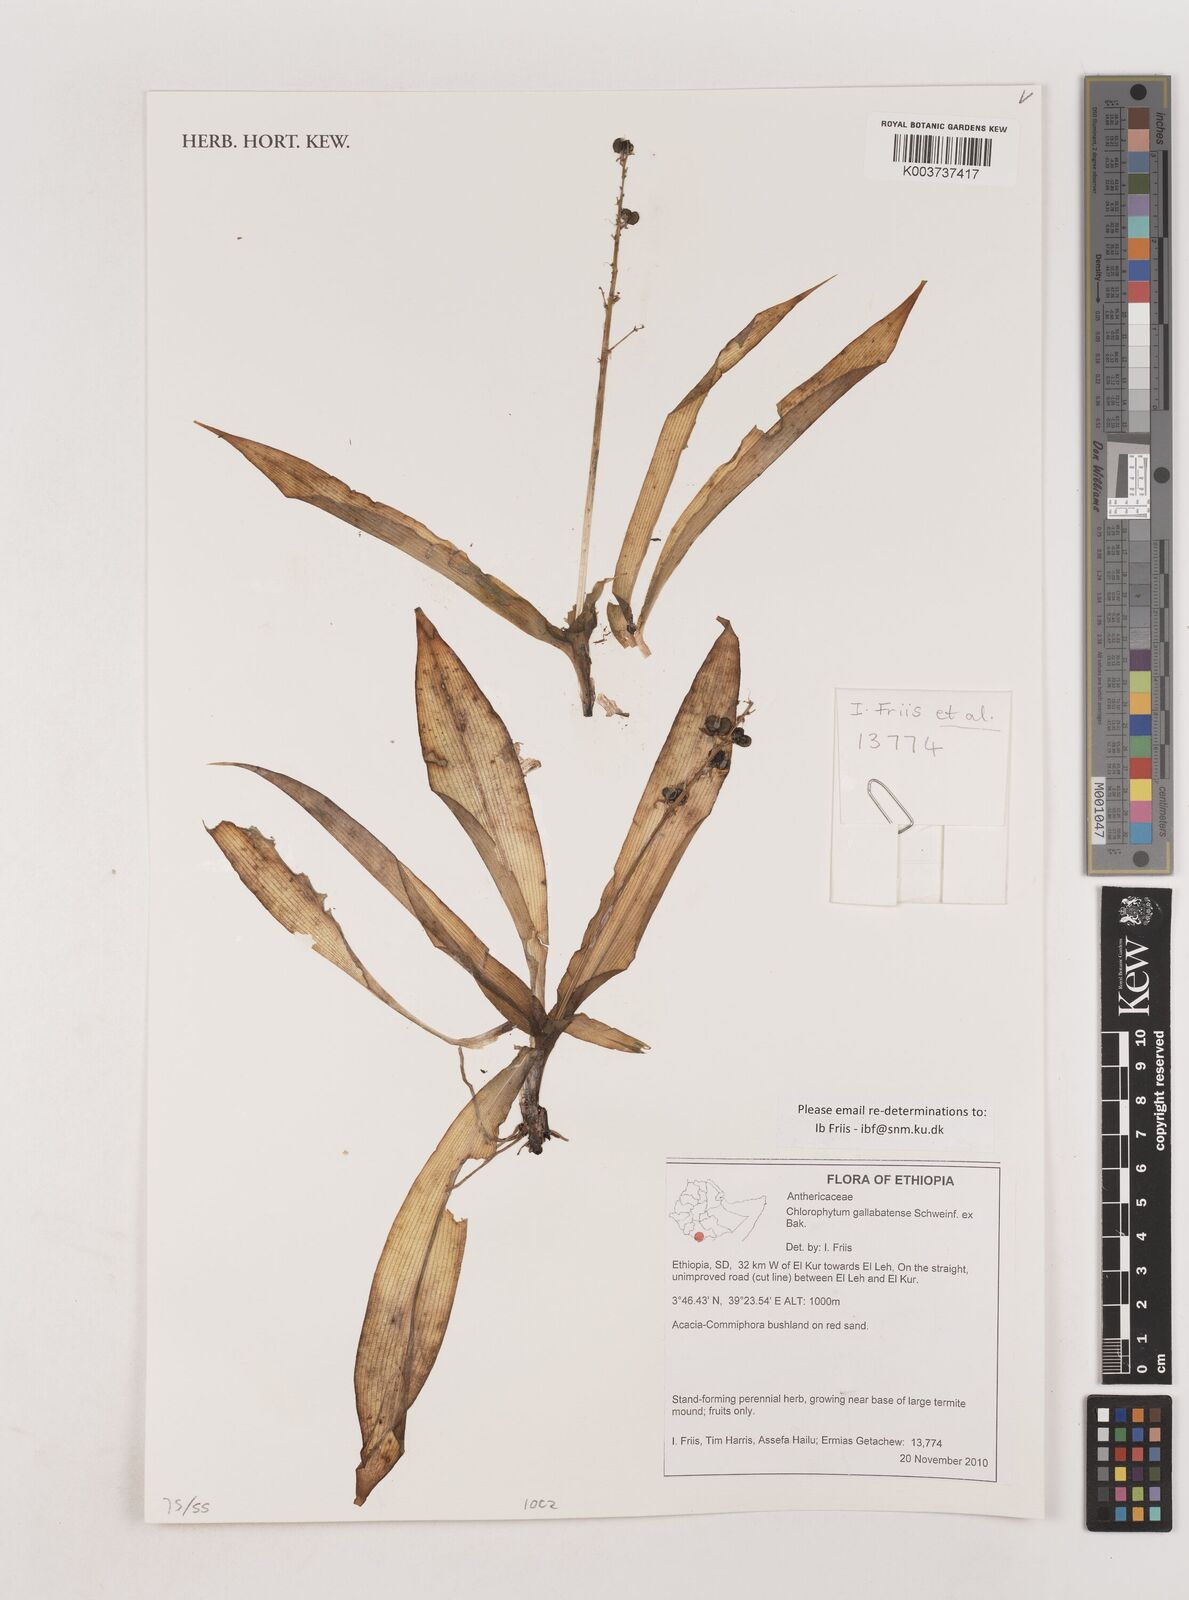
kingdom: Plantae
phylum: Tracheophyta
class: Liliopsida
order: Asparagales
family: Asparagaceae
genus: Chlorophytum
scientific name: Chlorophytum gallabatense
